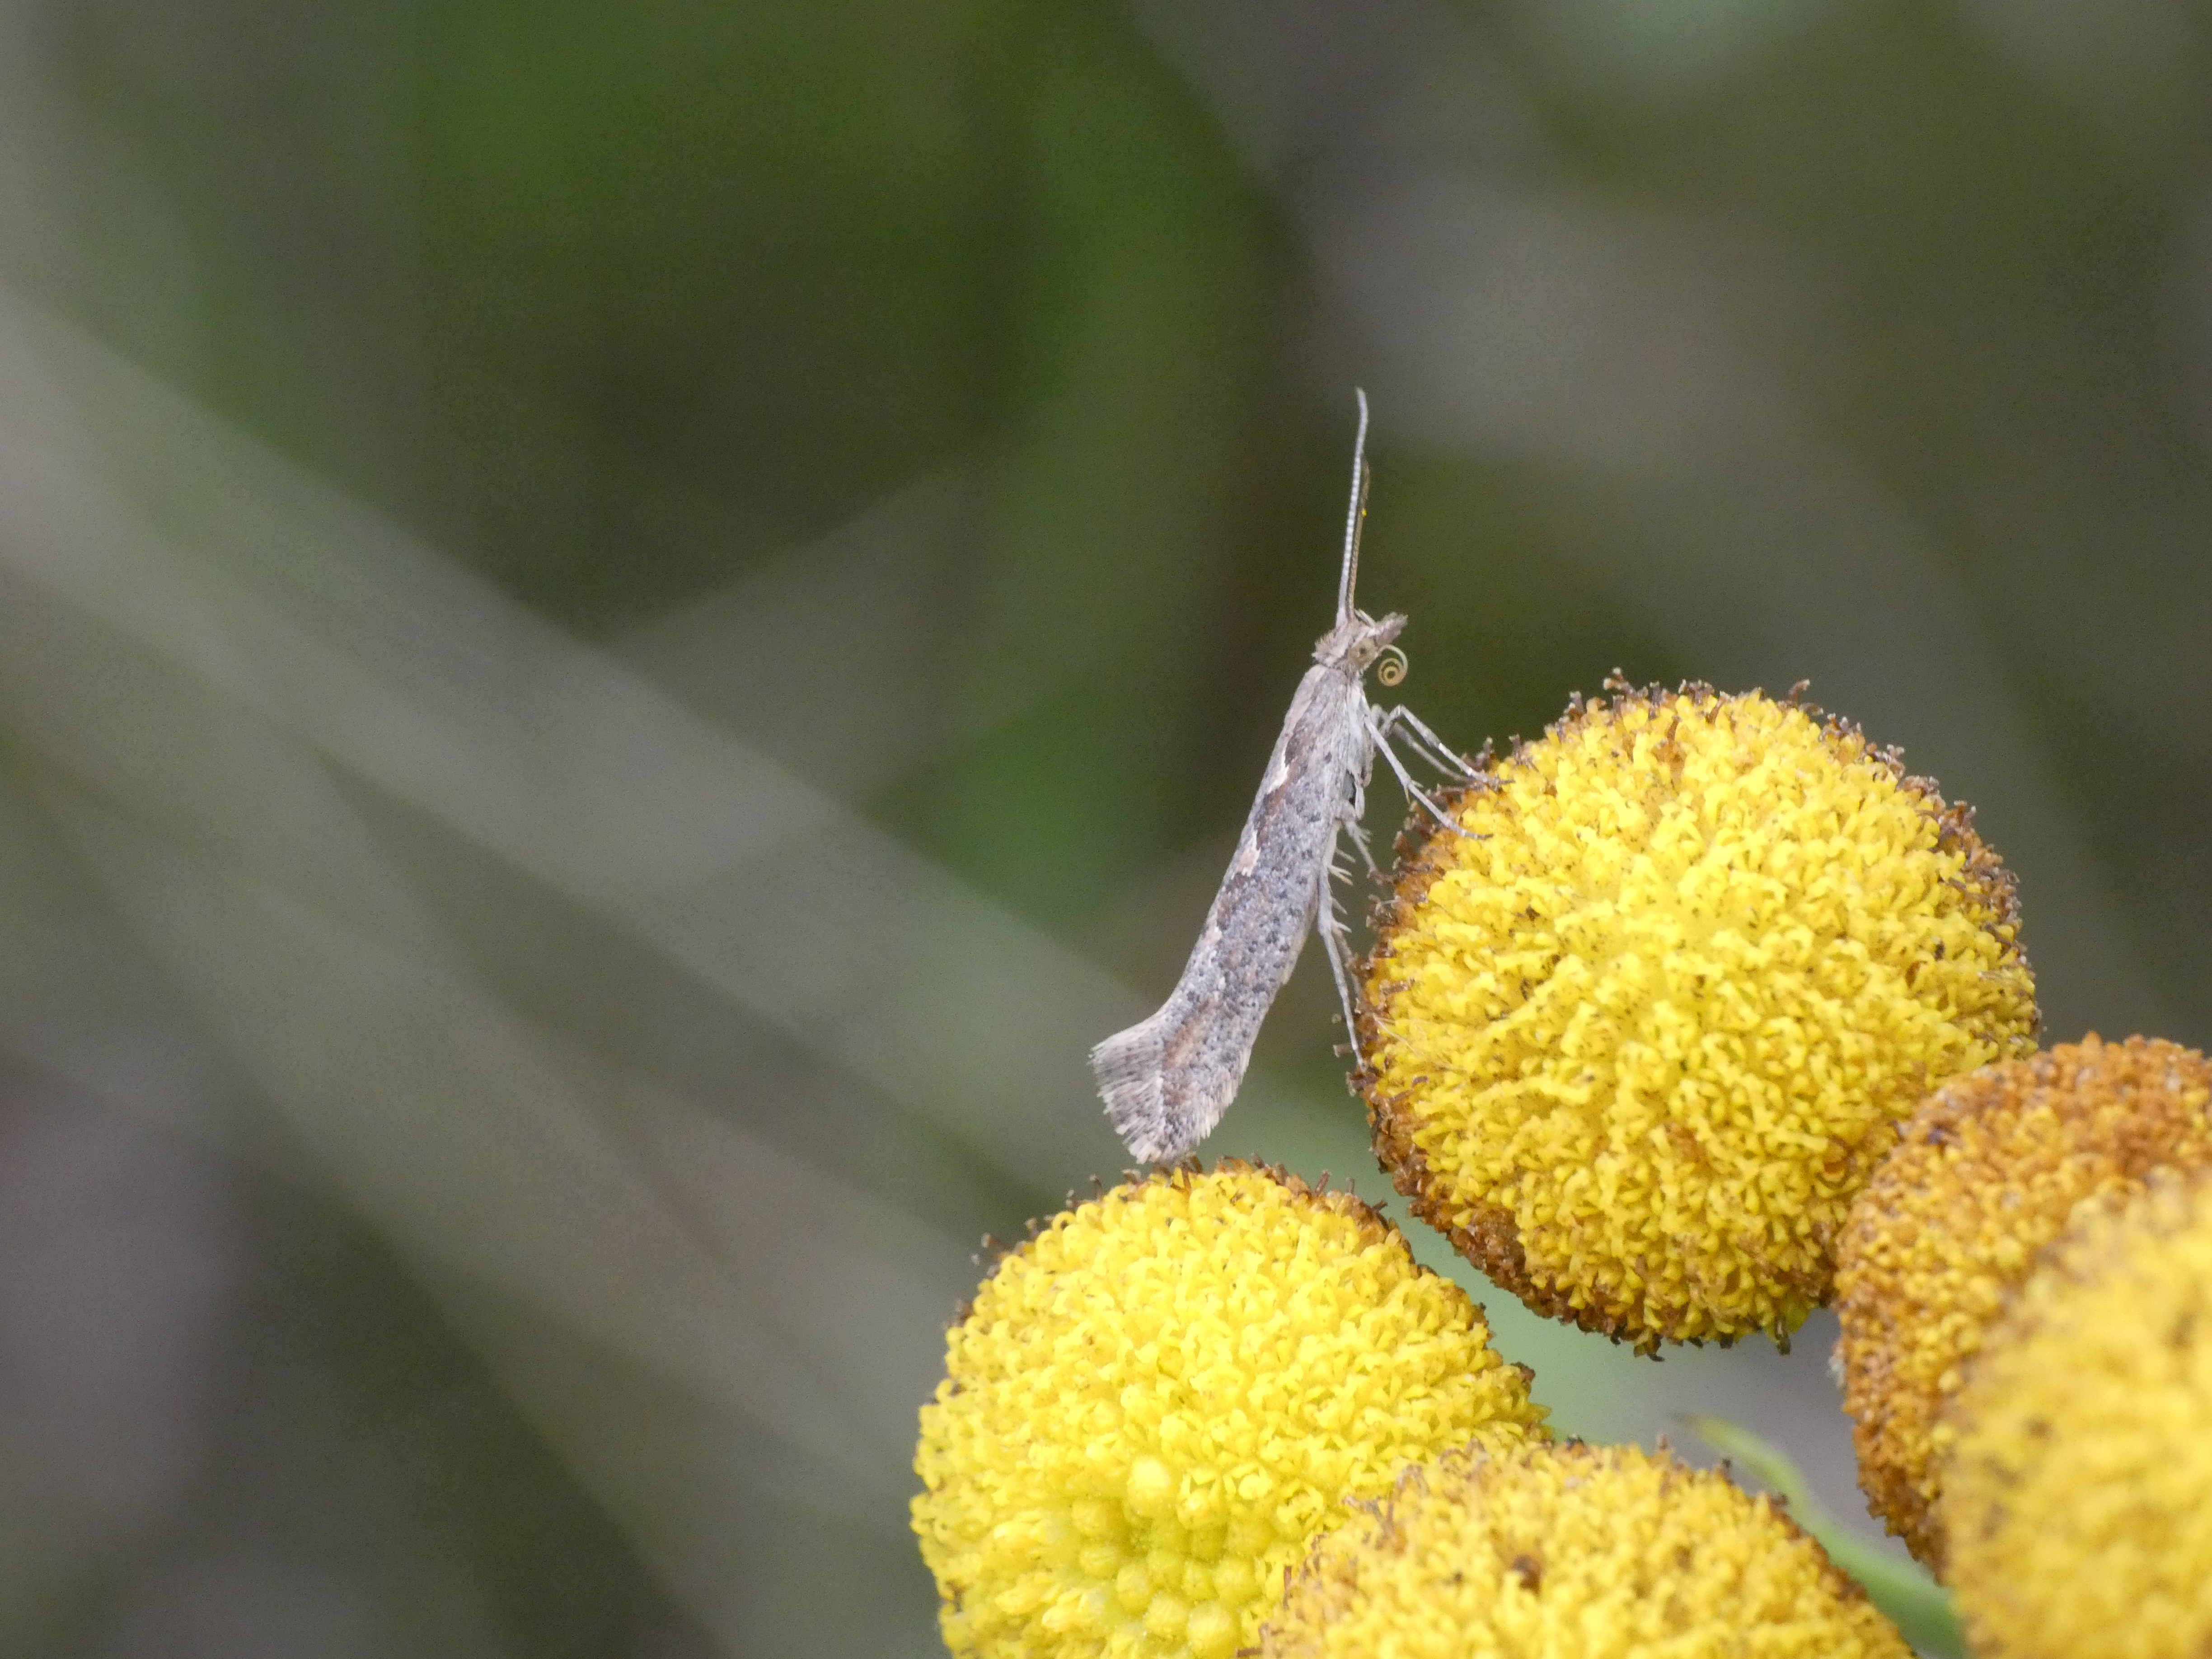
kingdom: Animalia
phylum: Arthropoda
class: Insecta
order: Lepidoptera
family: Plutellidae
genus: Plutella
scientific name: Plutella xylostella
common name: Kålmøl
